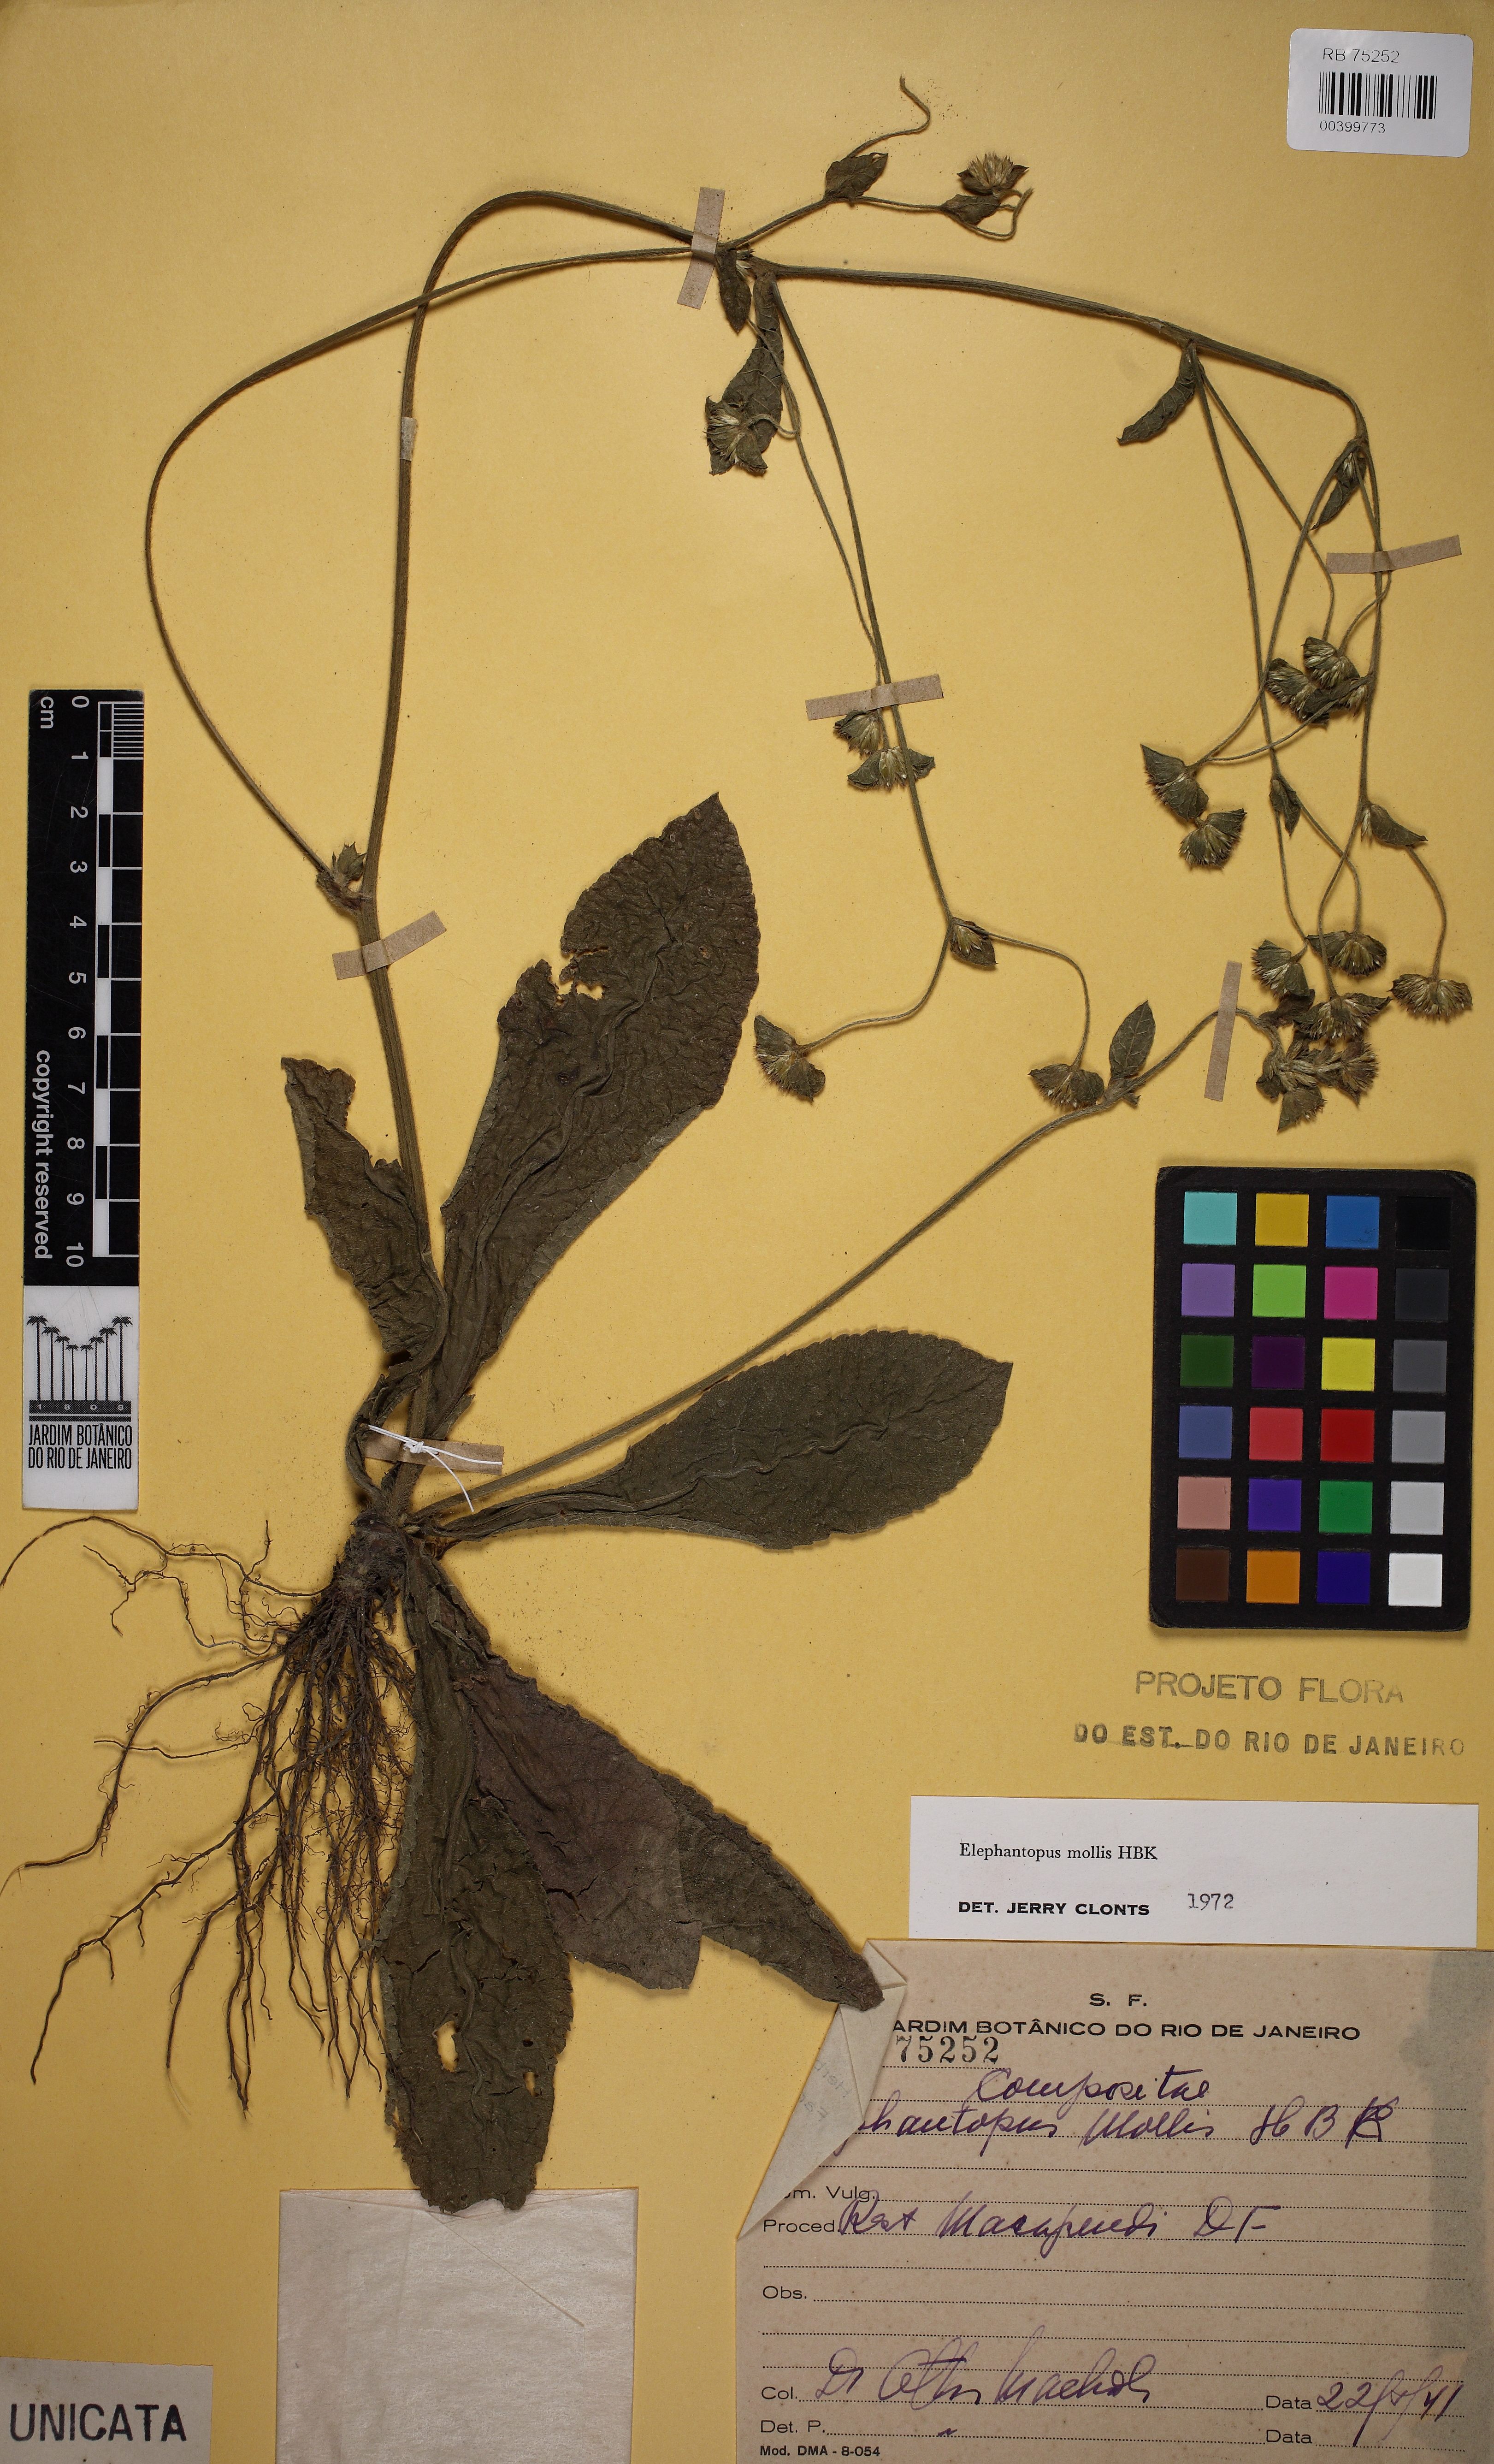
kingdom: Plantae
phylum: Tracheophyta
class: Magnoliopsida
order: Asterales
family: Asteraceae
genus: Elephantopus
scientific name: Elephantopus mollis
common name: Soft elephantsfoot
